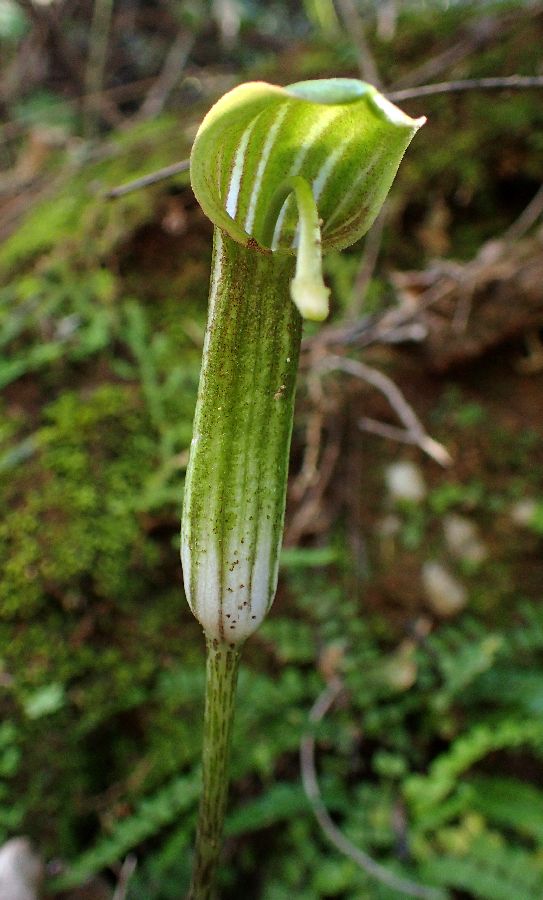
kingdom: Plantae
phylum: Tracheophyta
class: Liliopsida
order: Alismatales
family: Araceae
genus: Arisarum
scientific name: Arisarum vulgare
